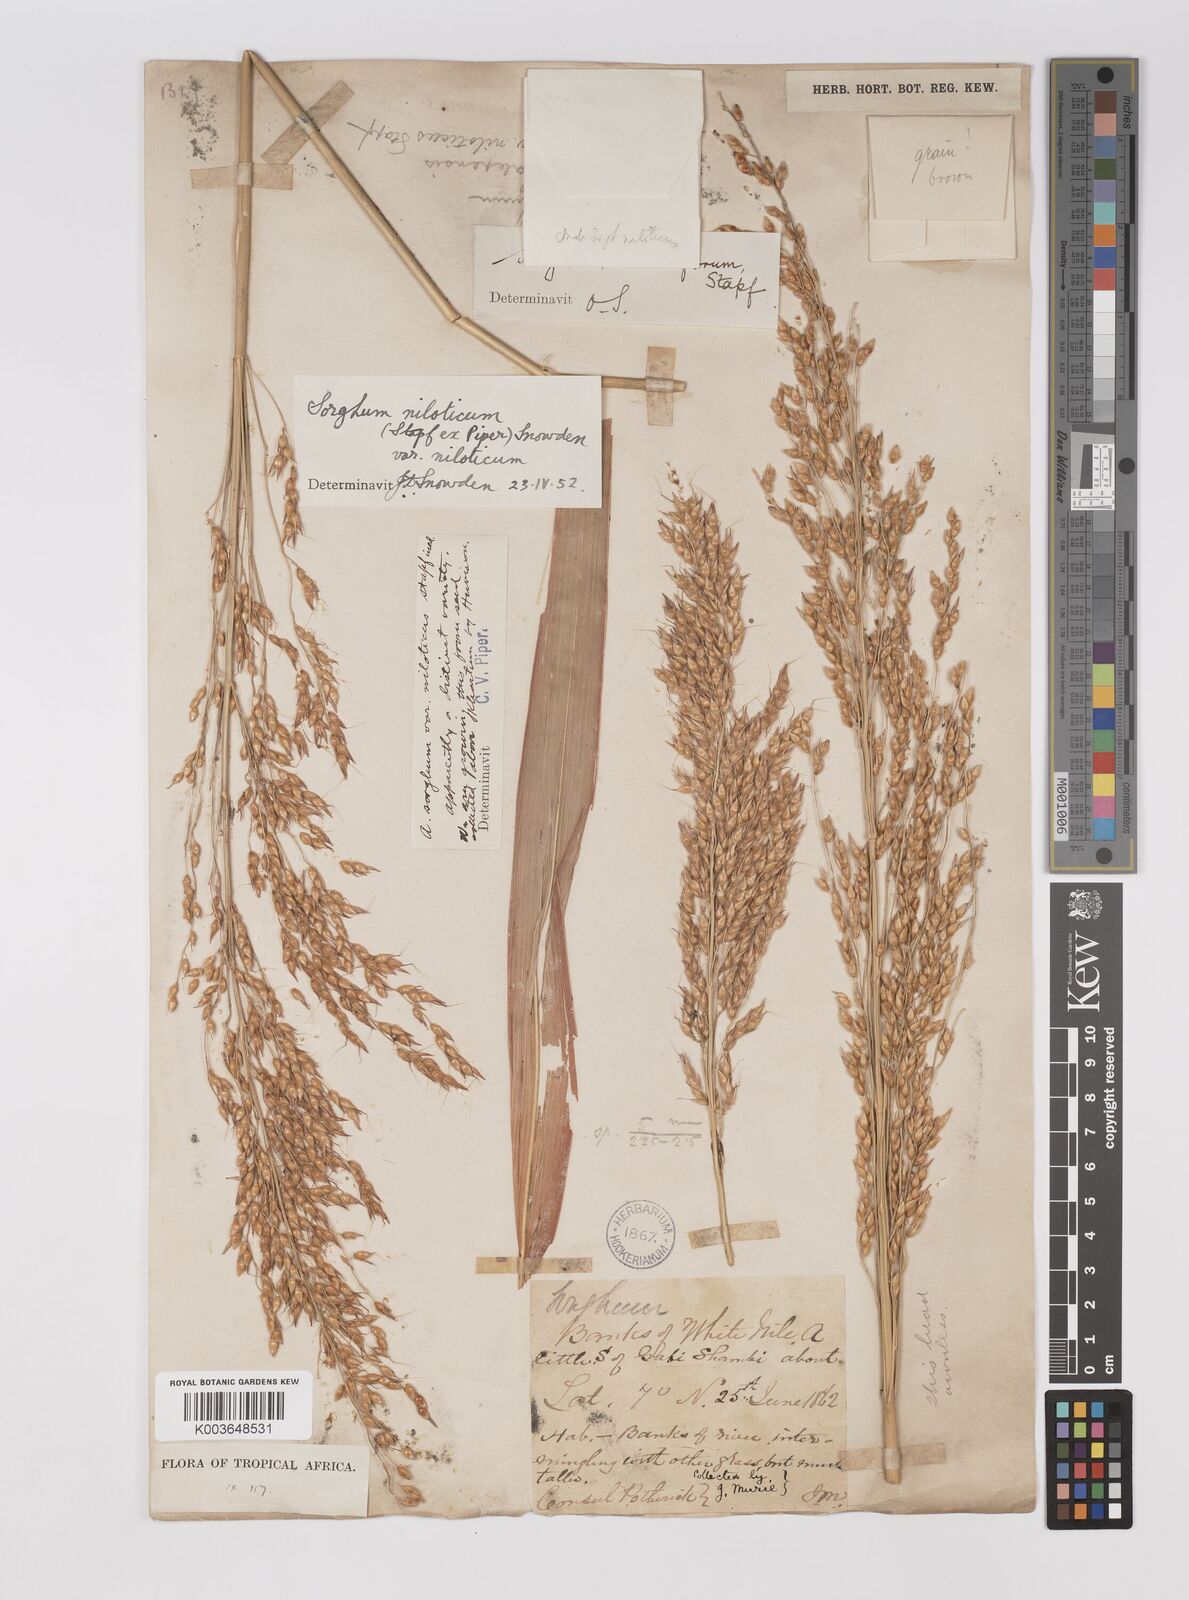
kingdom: Plantae
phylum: Tracheophyta
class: Liliopsida
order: Poales
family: Poaceae
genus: Sorghum
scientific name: Sorghum drummondii
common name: Sudangrass
